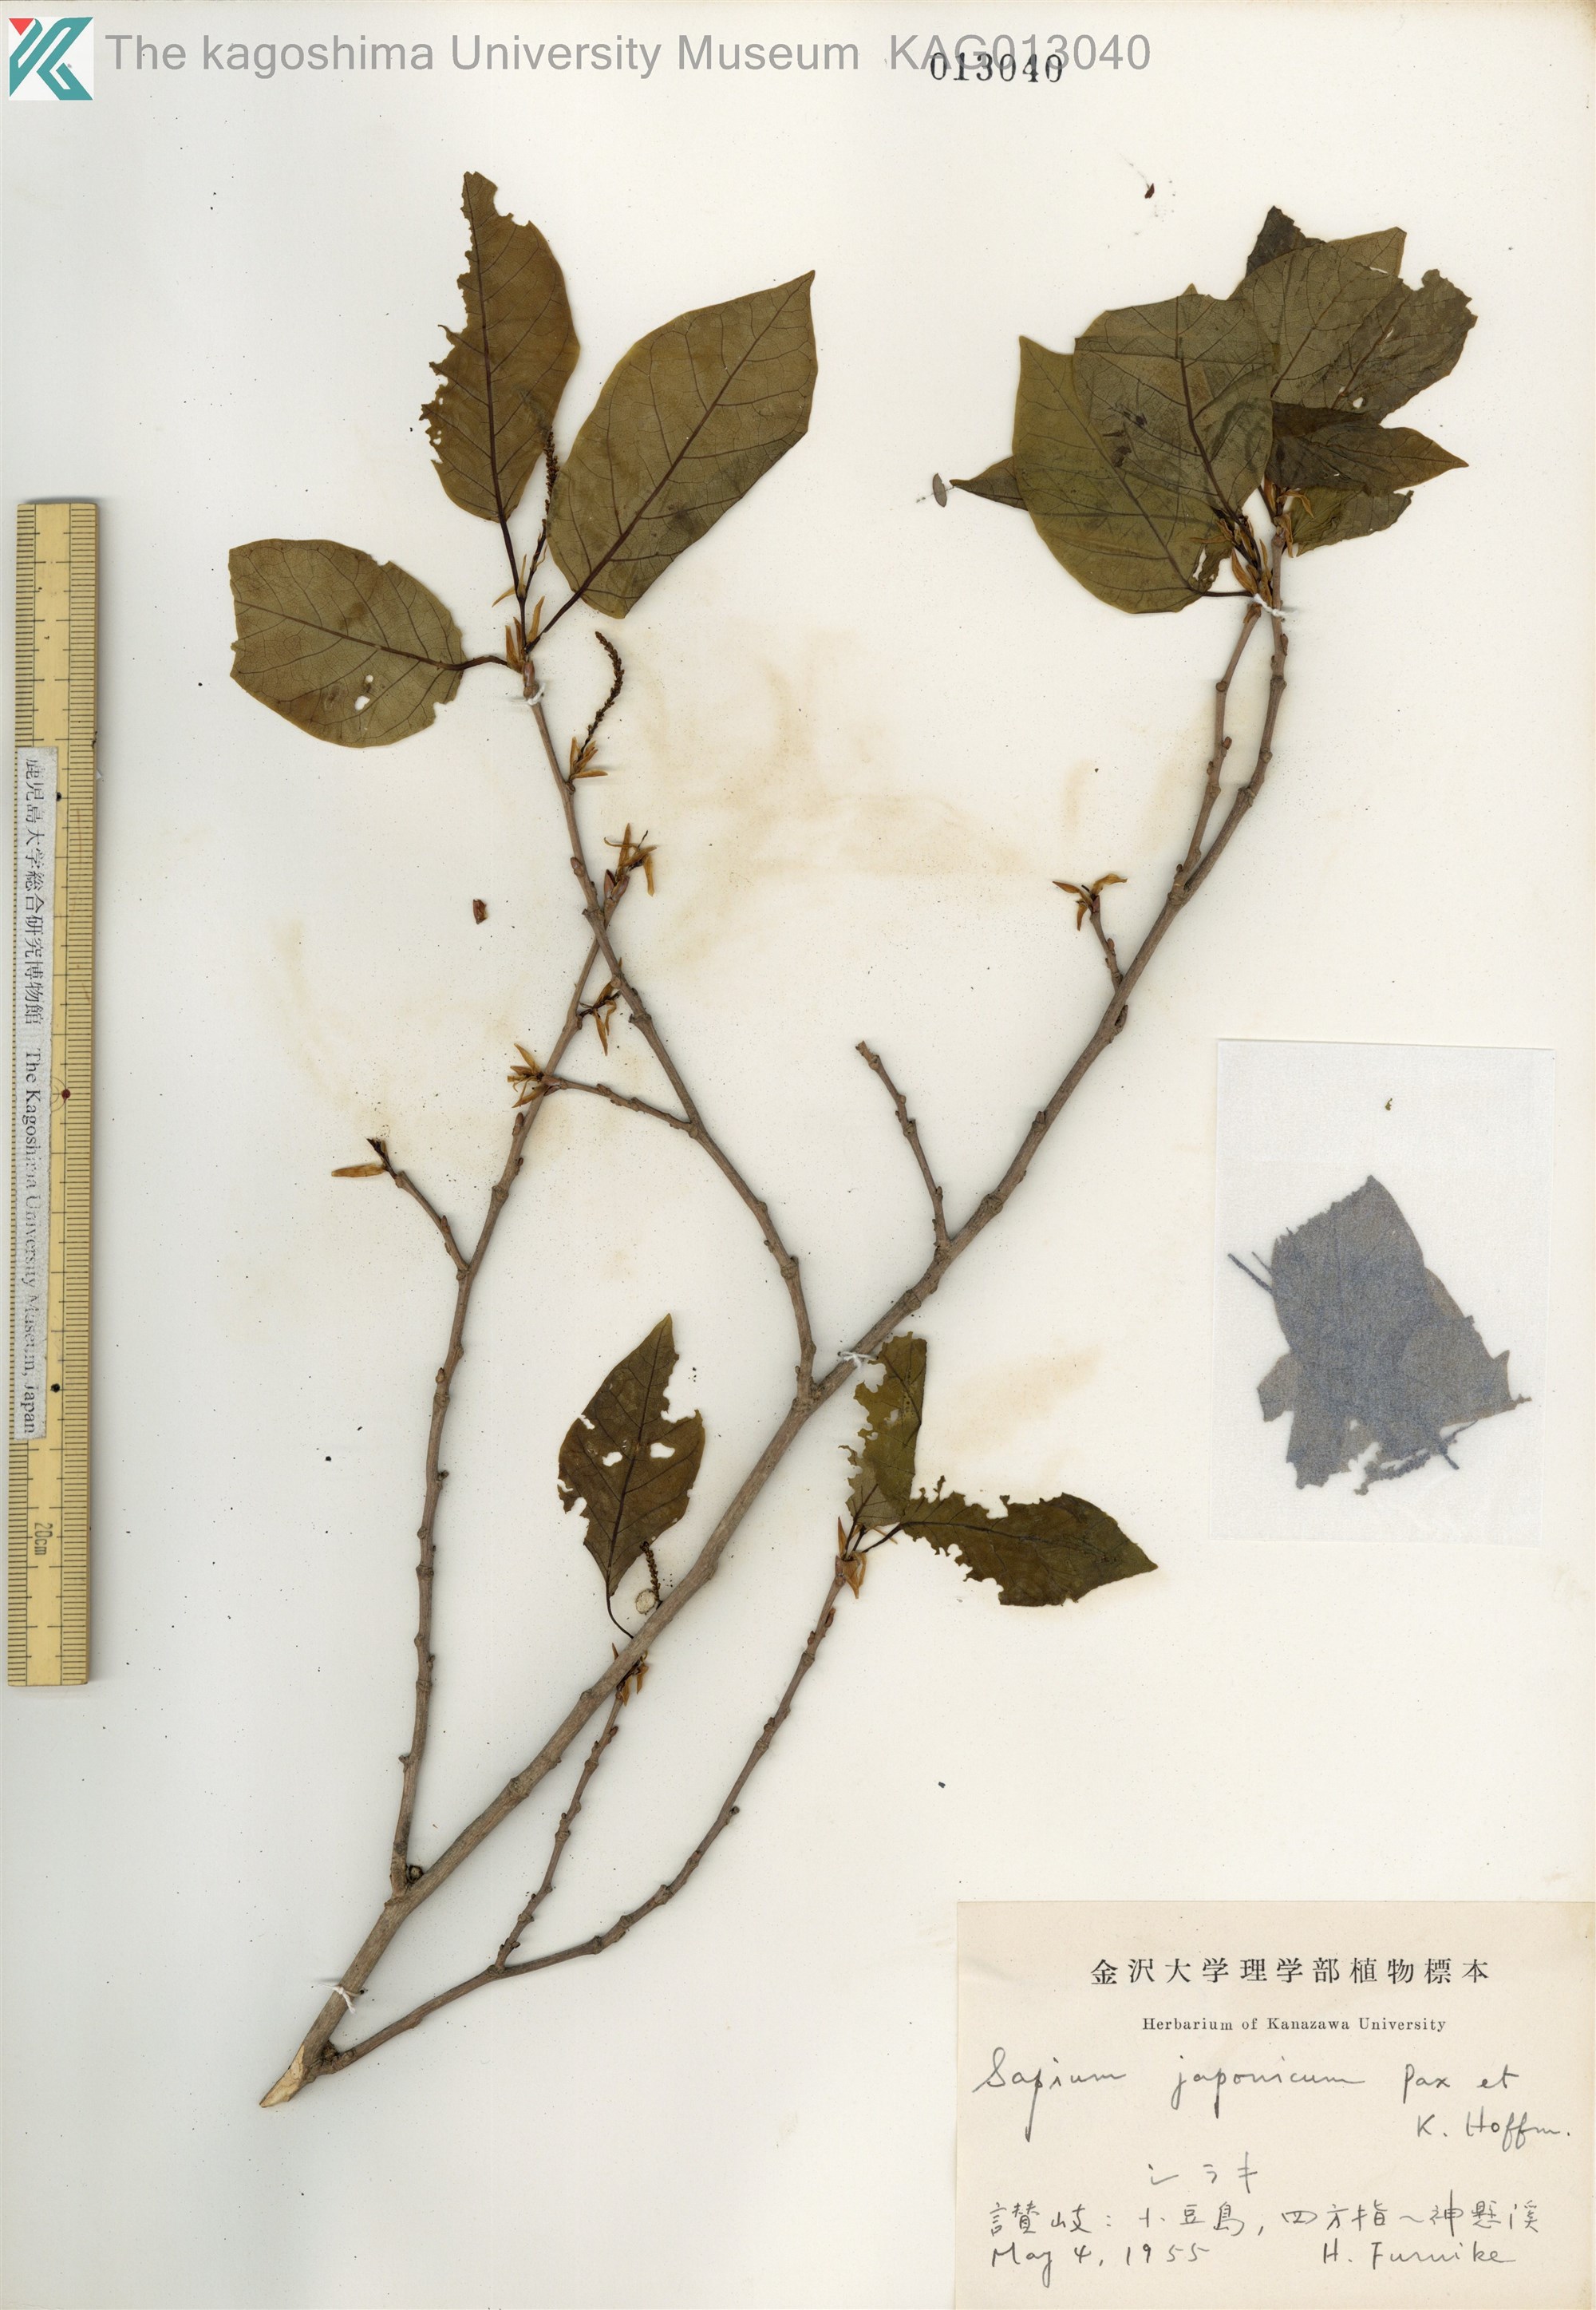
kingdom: Plantae
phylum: Tracheophyta
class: Magnoliopsida
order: Malpighiales
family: Euphorbiaceae
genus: Neoshirakia
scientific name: Neoshirakia japonica
